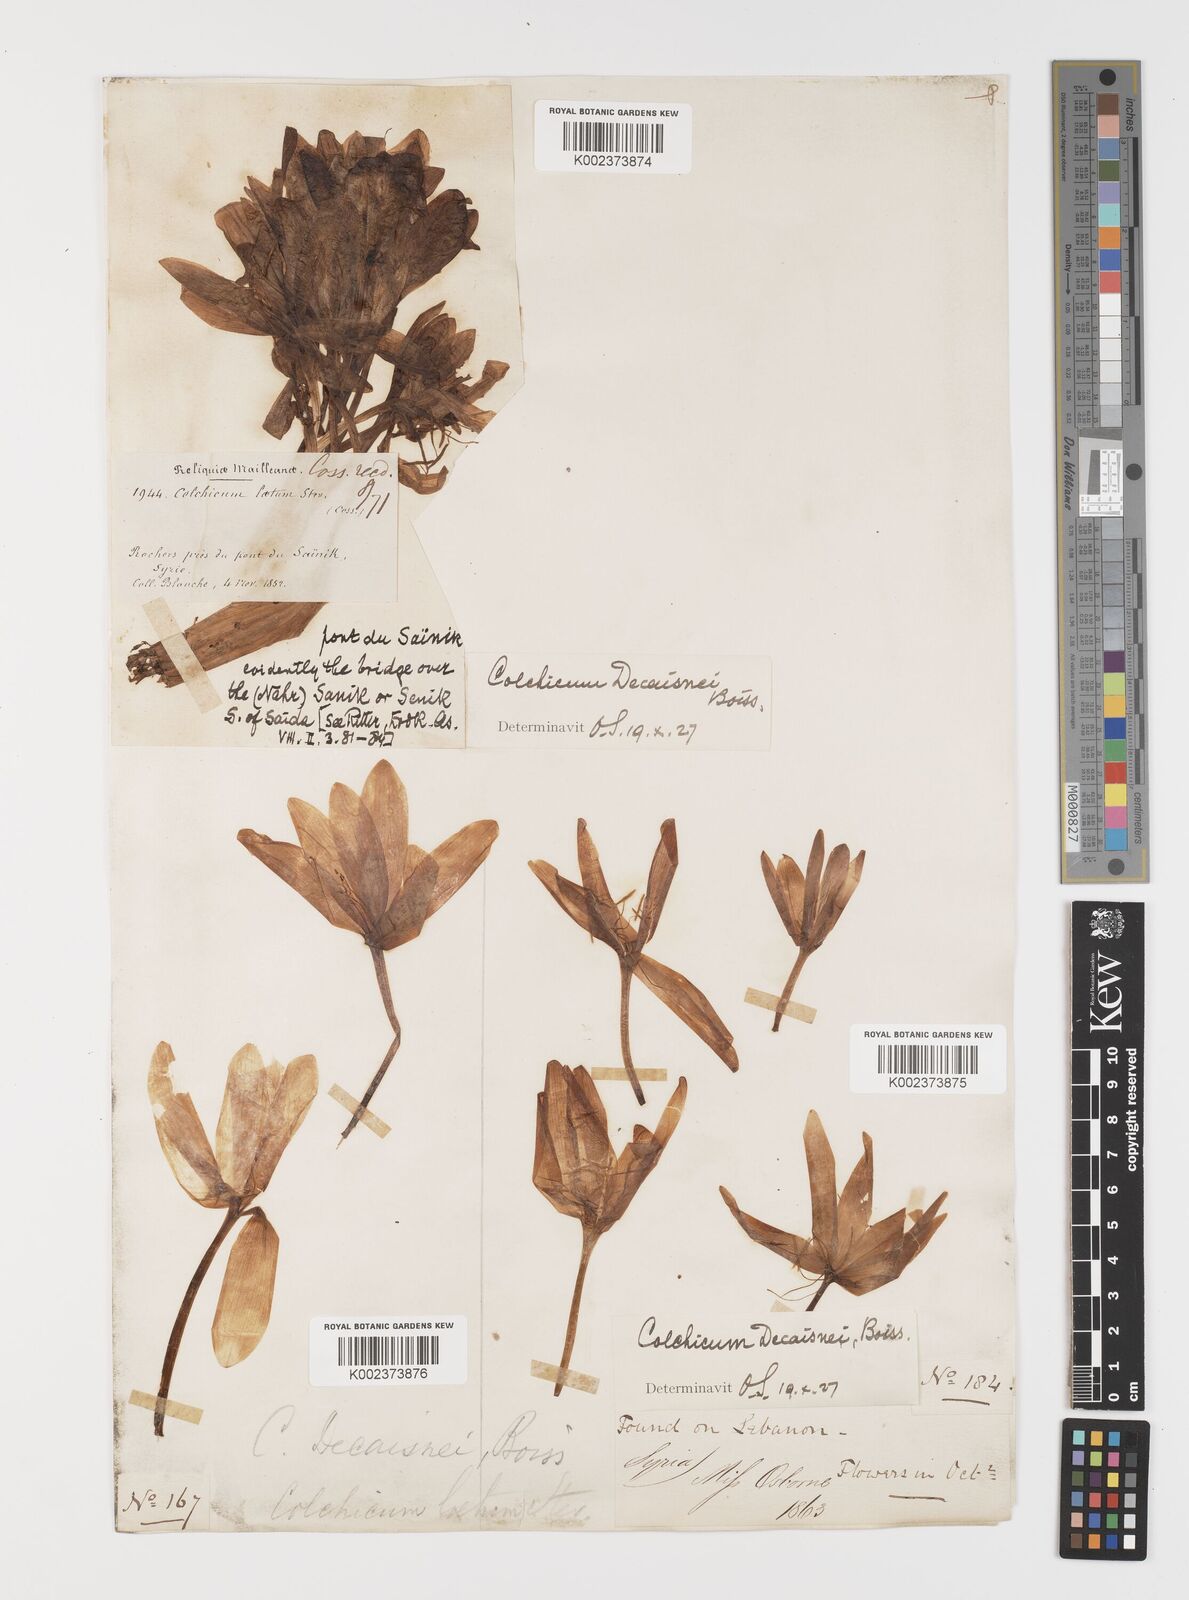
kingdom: Plantae
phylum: Tracheophyta
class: Liliopsida
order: Liliales
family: Colchicaceae
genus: Colchicum
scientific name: Colchicum decaisnei
